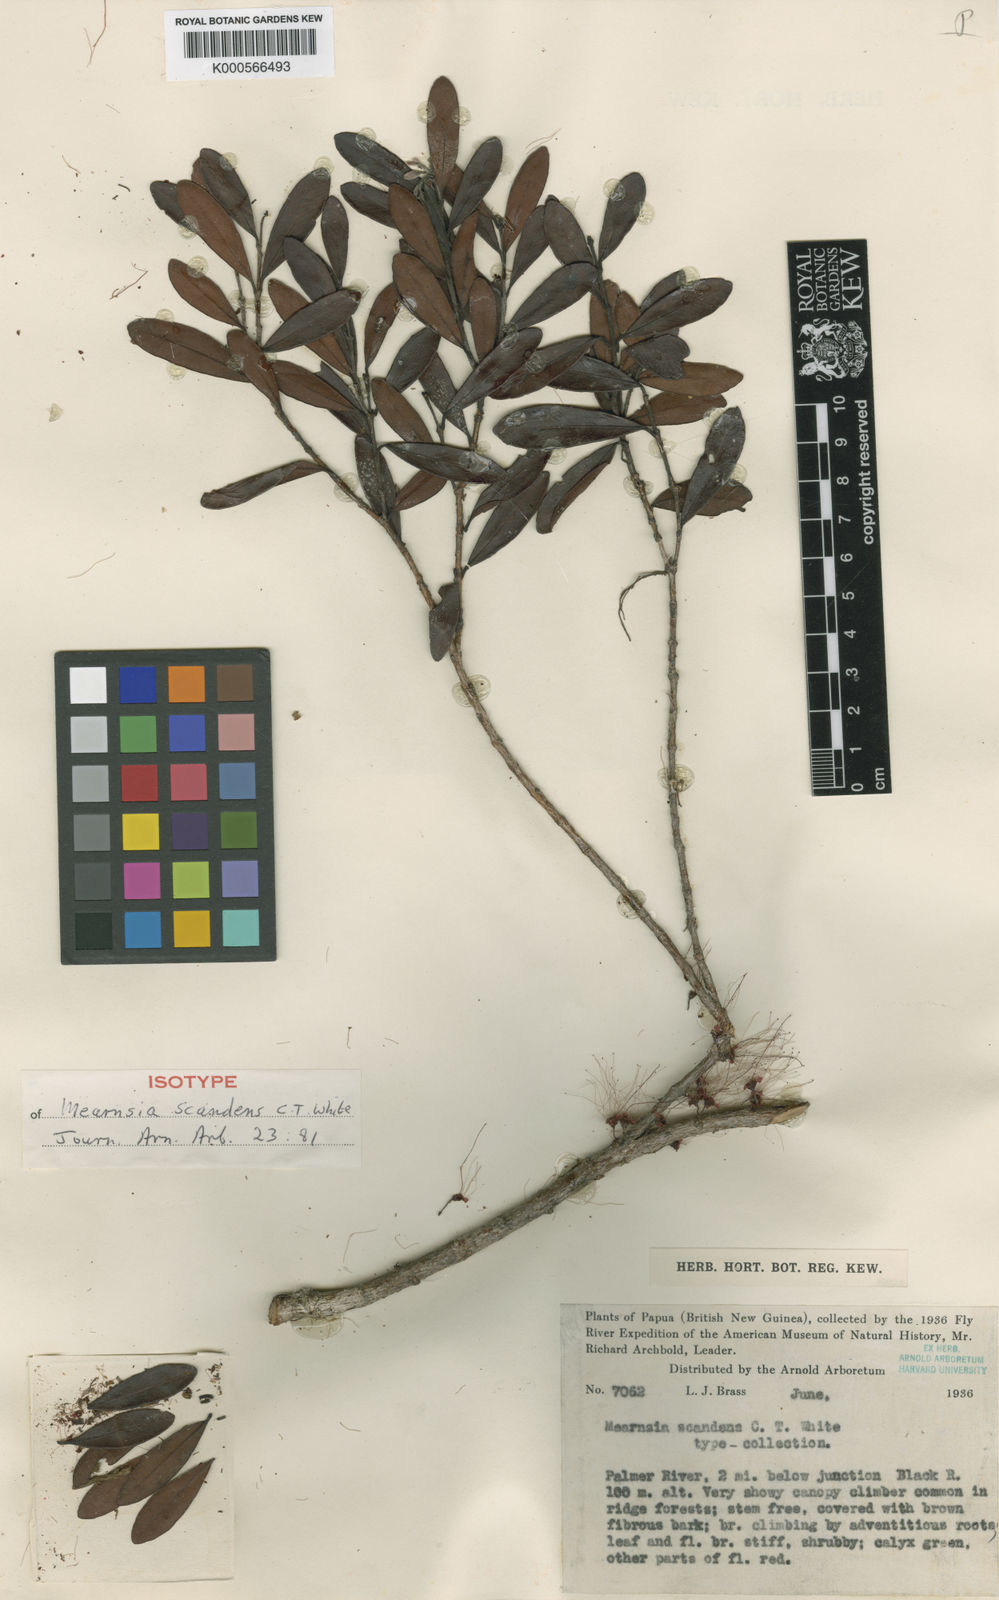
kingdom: Plantae
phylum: Tracheophyta
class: Magnoliopsida
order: Myrtales
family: Myrtaceae
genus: Metrosideros
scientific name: Metrosideros whitakeri
